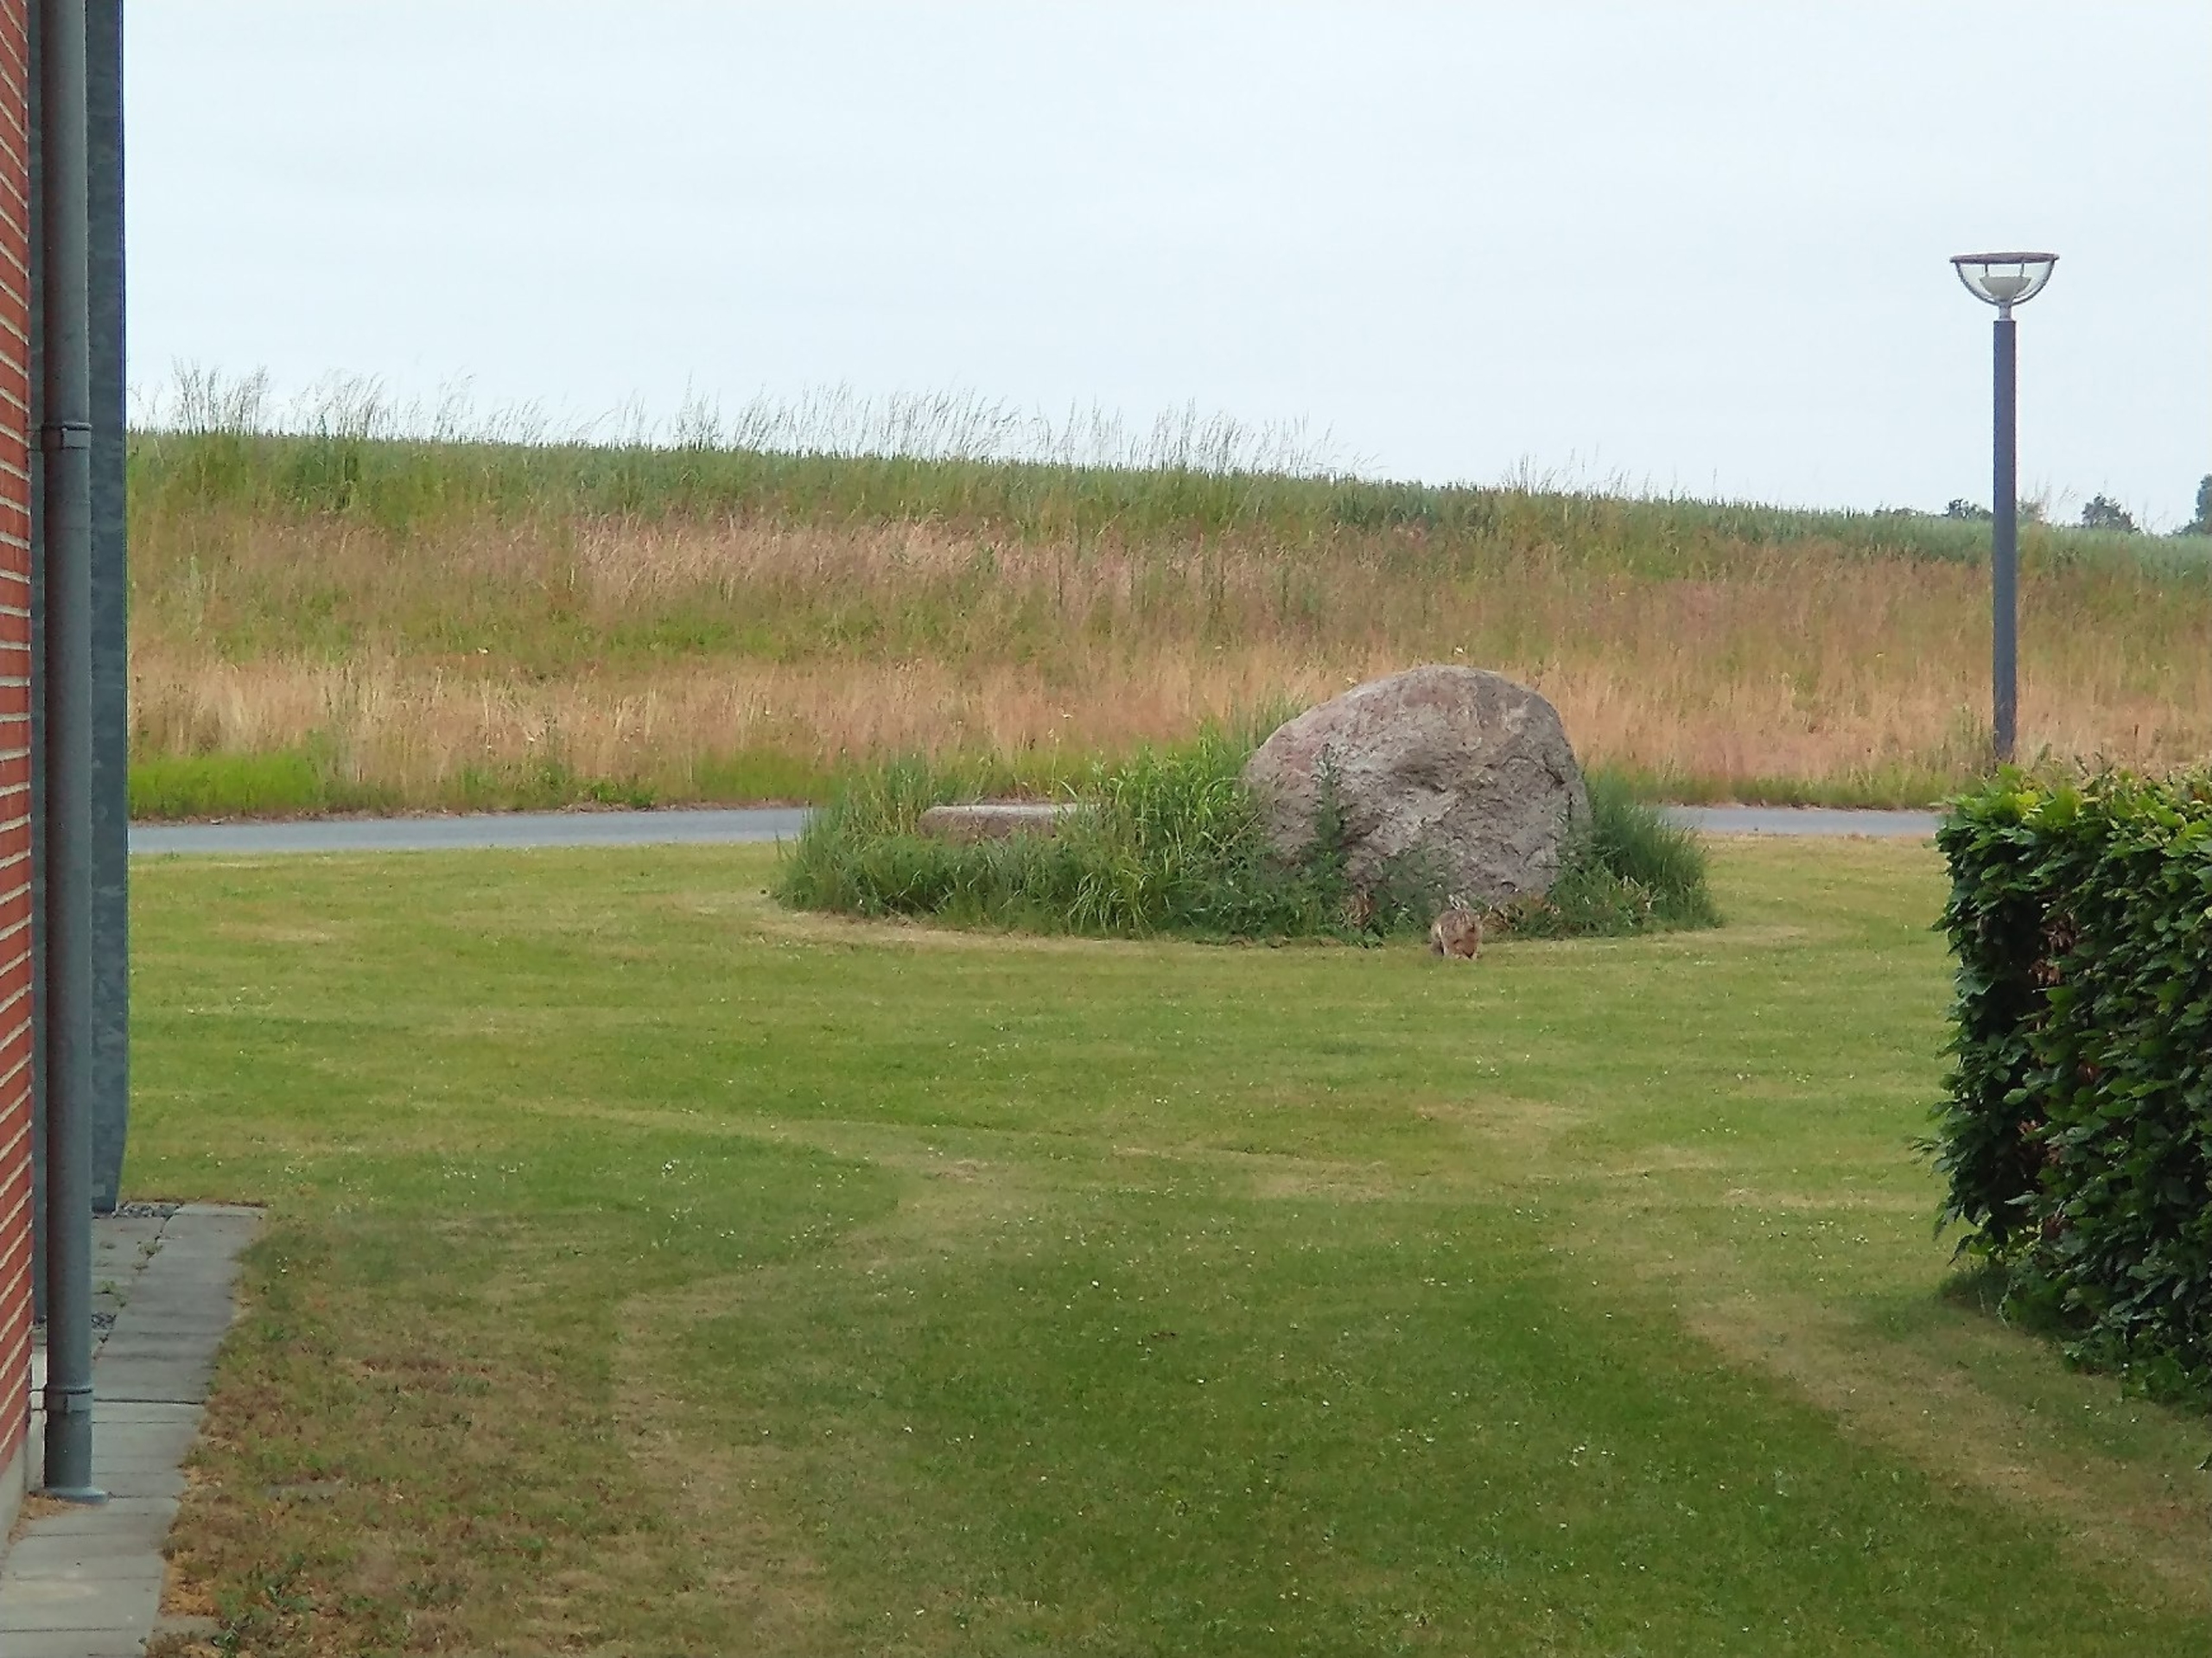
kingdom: Animalia
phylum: Chordata
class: Mammalia
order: Lagomorpha
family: Leporidae
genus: Lepus
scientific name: Lepus europaeus
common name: Hare
